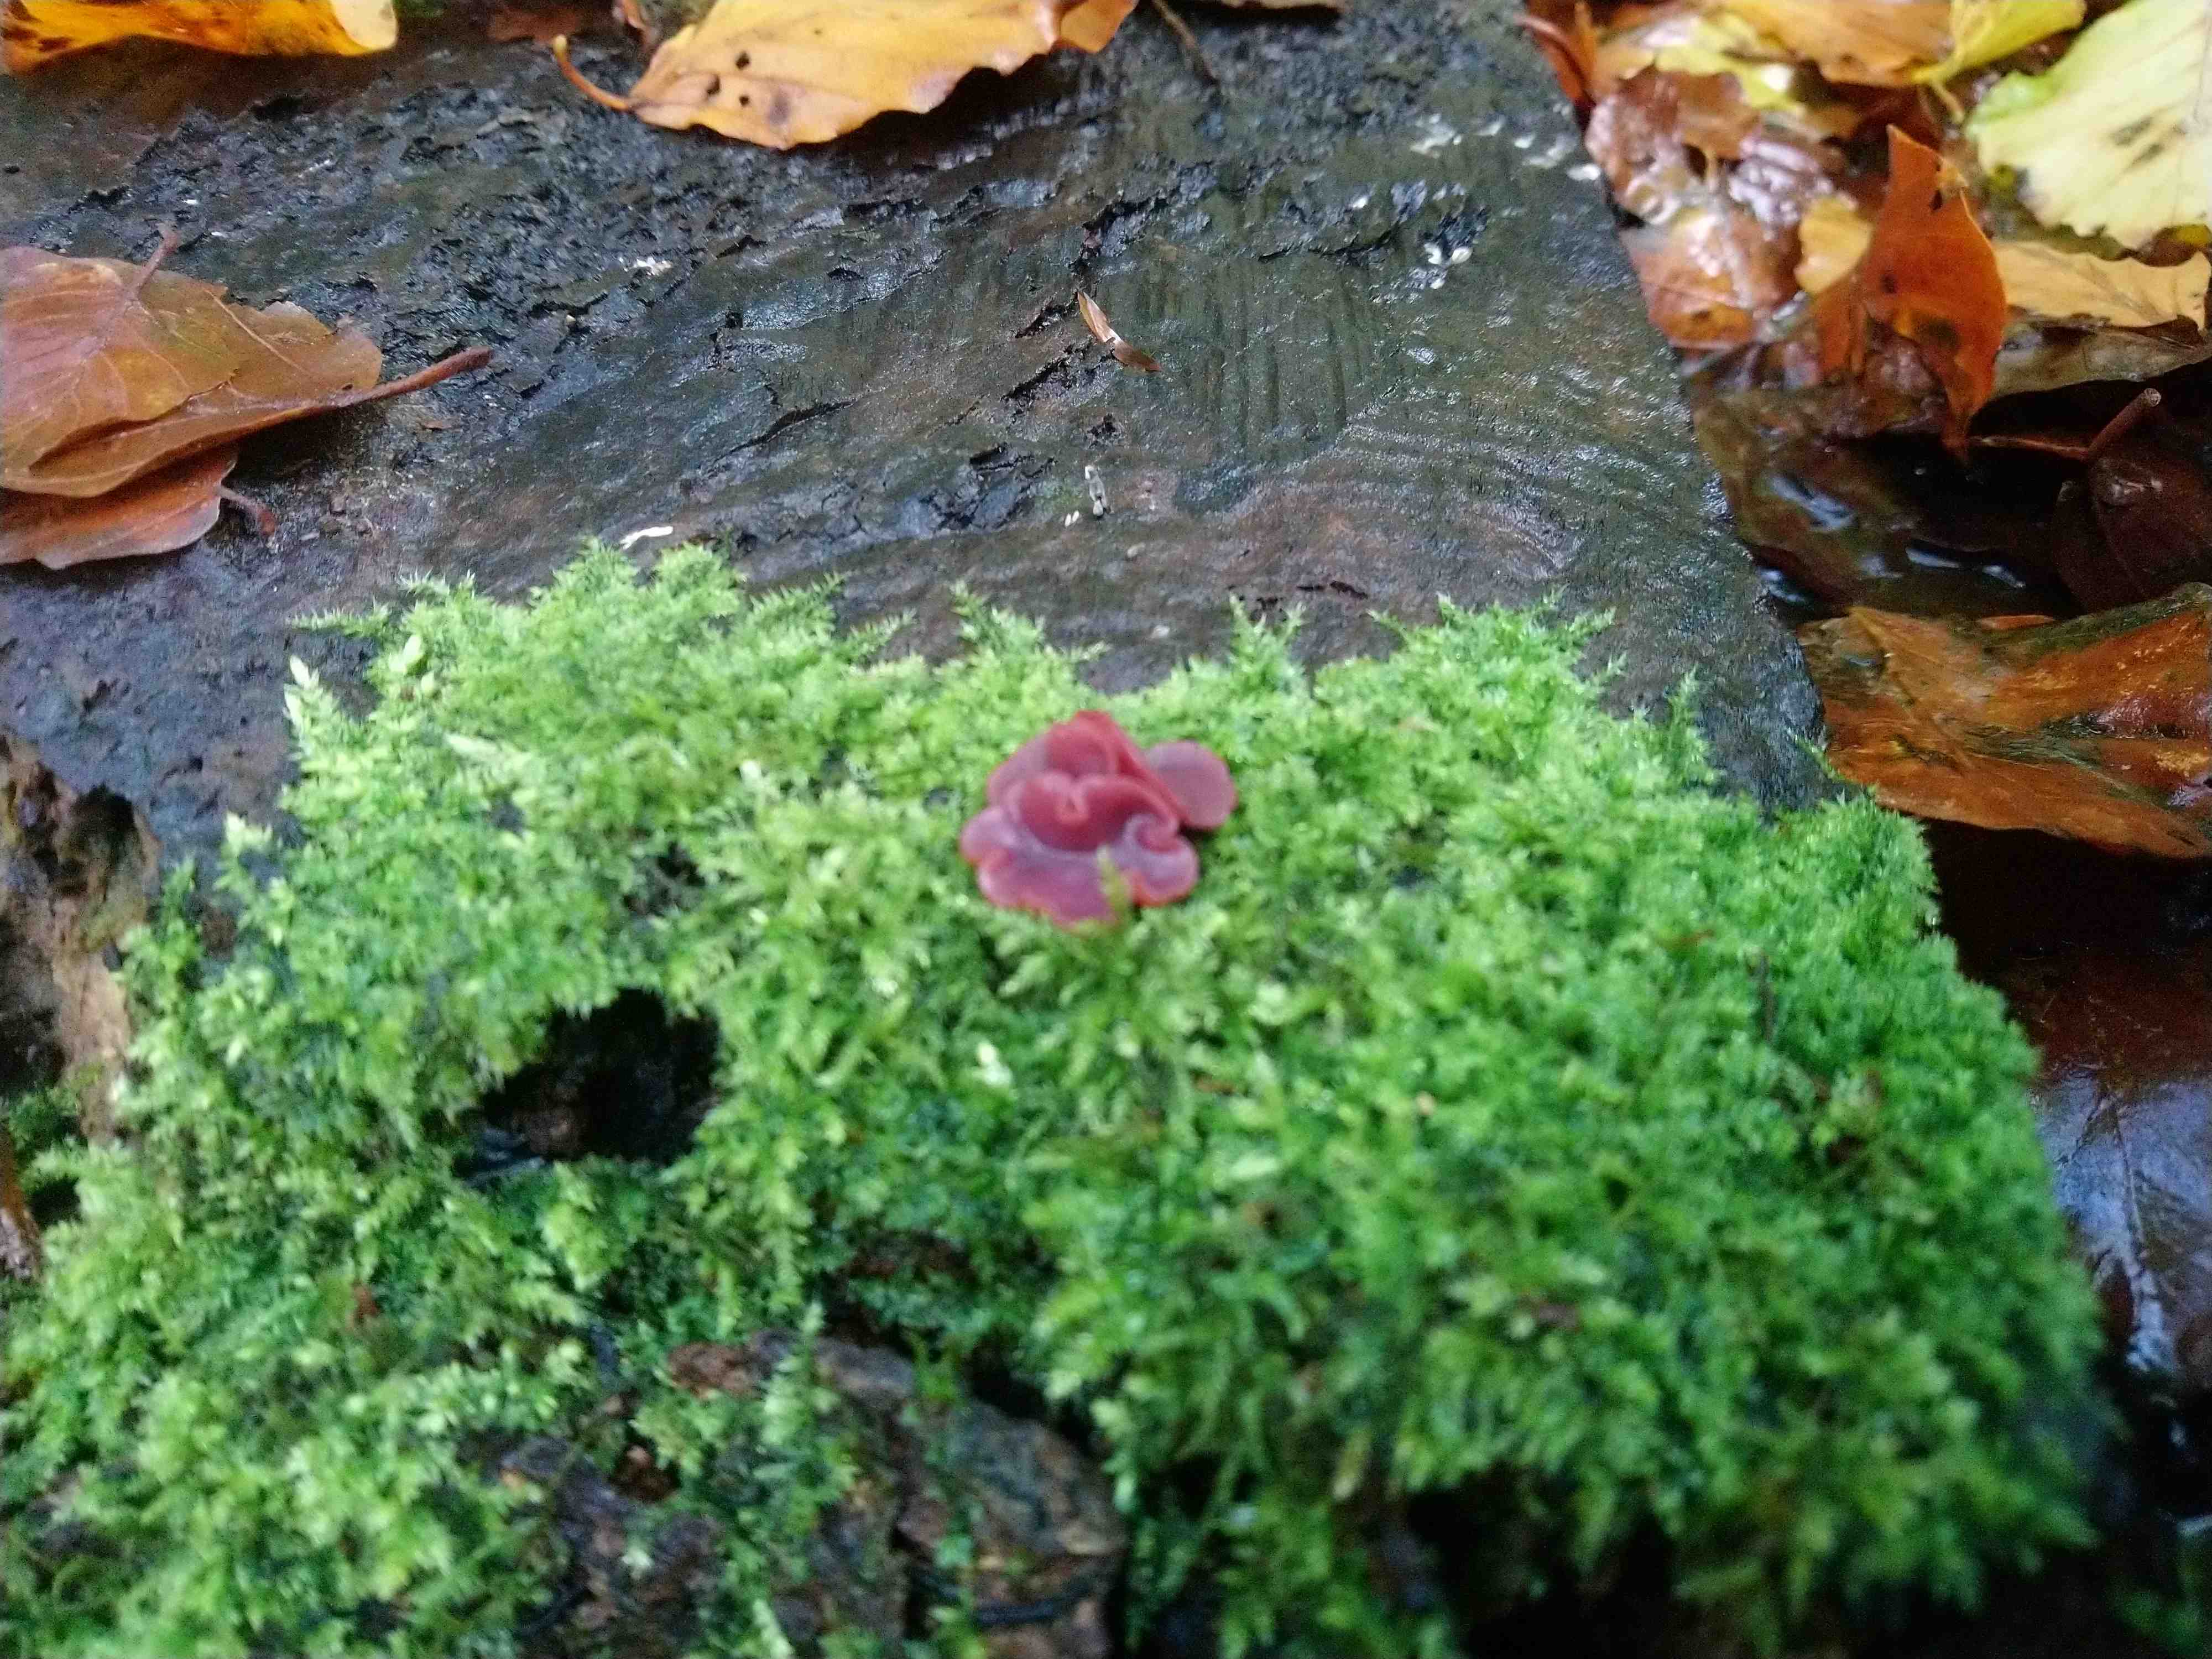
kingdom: Fungi
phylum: Ascomycota
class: Leotiomycetes
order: Helotiales
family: Gelatinodiscaceae
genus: Ascocoryne
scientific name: Ascocoryne cylichnium
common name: stor sejskive
